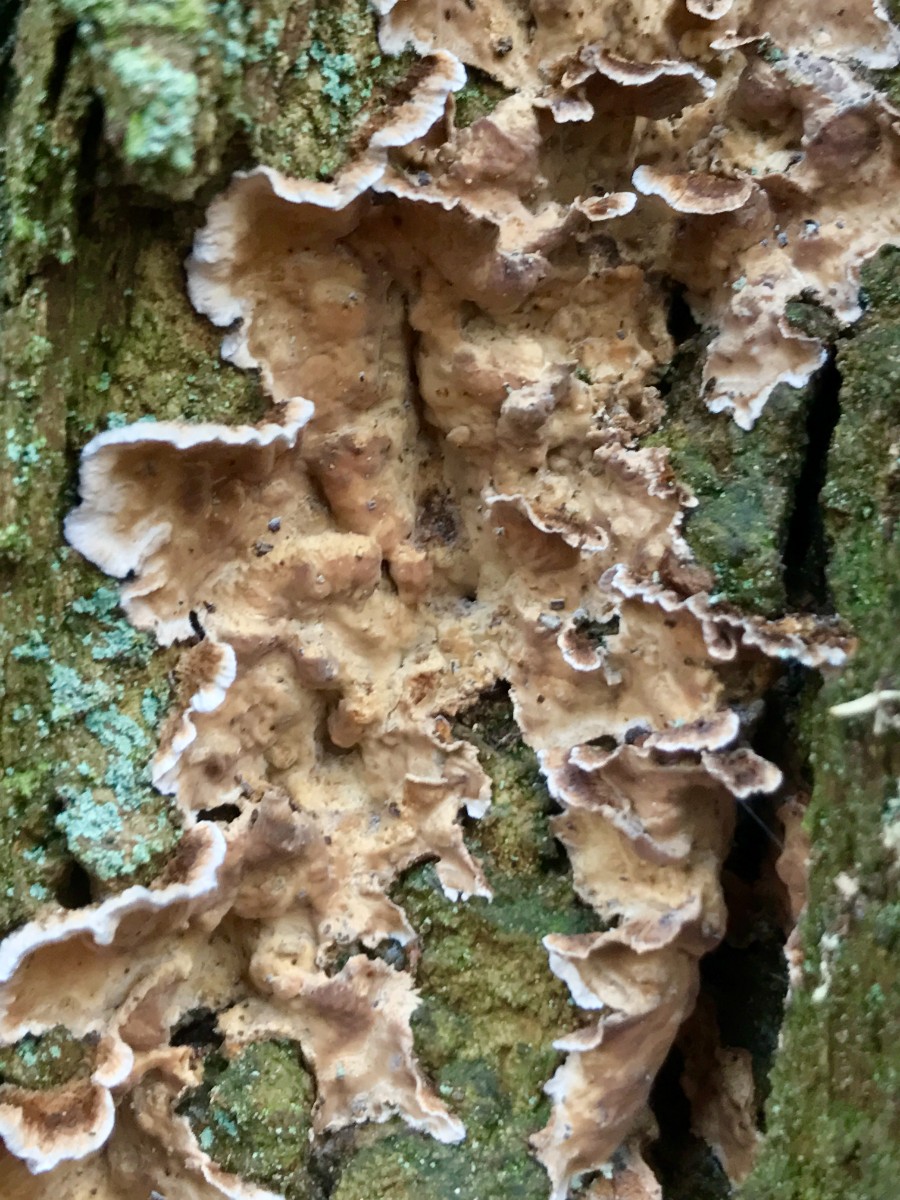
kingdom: Fungi
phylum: Basidiomycota
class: Agaricomycetes
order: Russulales
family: Stereaceae
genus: Stereum
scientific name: Stereum rugosum
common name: rynket lædersvamp
